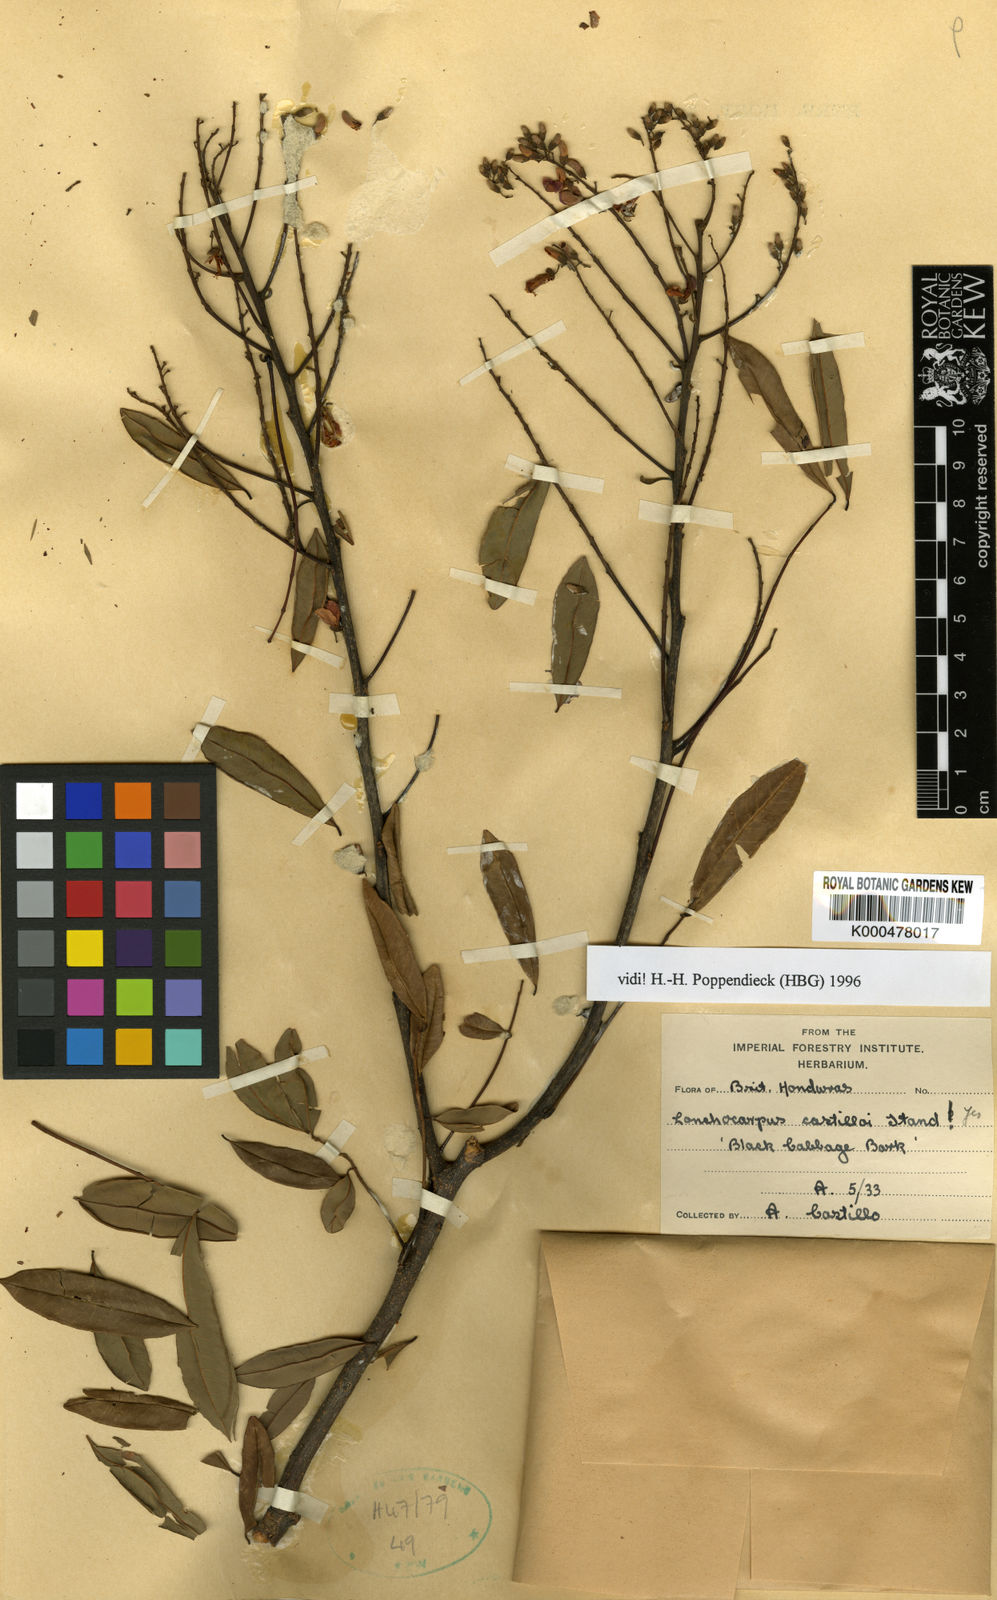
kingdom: Plantae
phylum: Tracheophyta
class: Magnoliopsida
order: Fabales
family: Fabaceae
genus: Lonchocarpus
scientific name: Lonchocarpus castilloi
